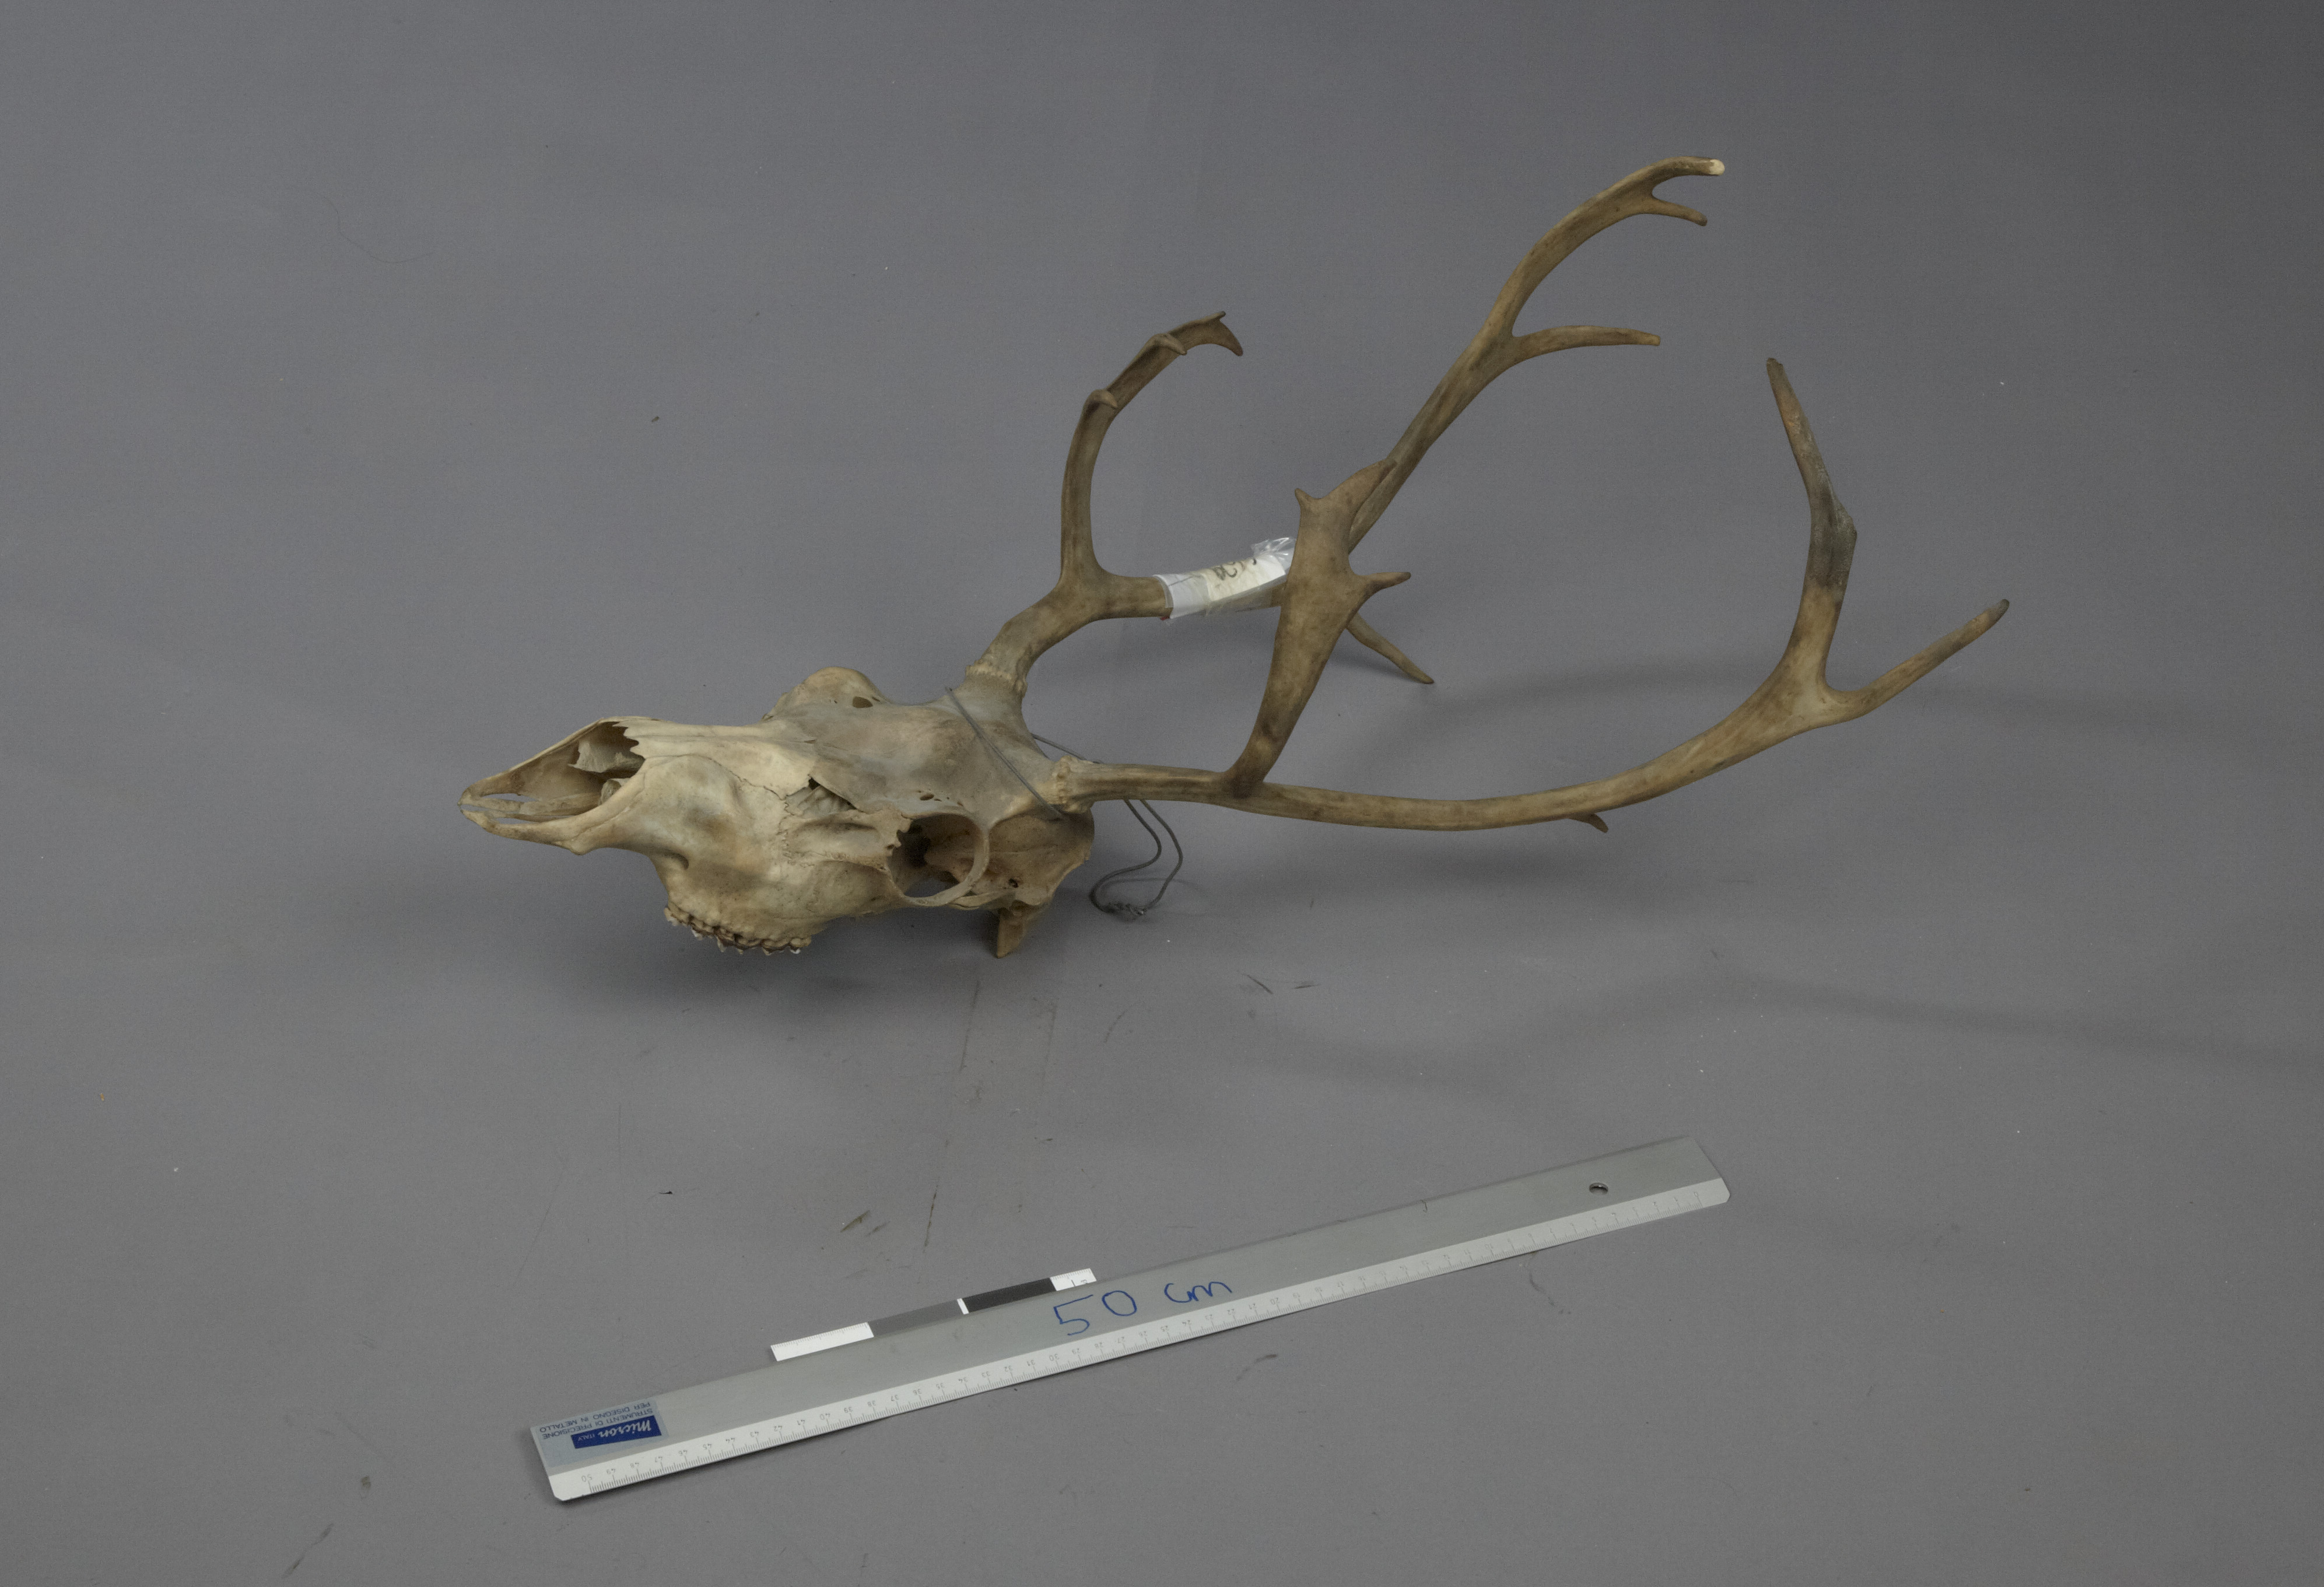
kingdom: Animalia
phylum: Chordata
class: Mammalia
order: Artiodactyla
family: Cervidae
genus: Rangifer
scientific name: Rangifer tarandus
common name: Reindeer
